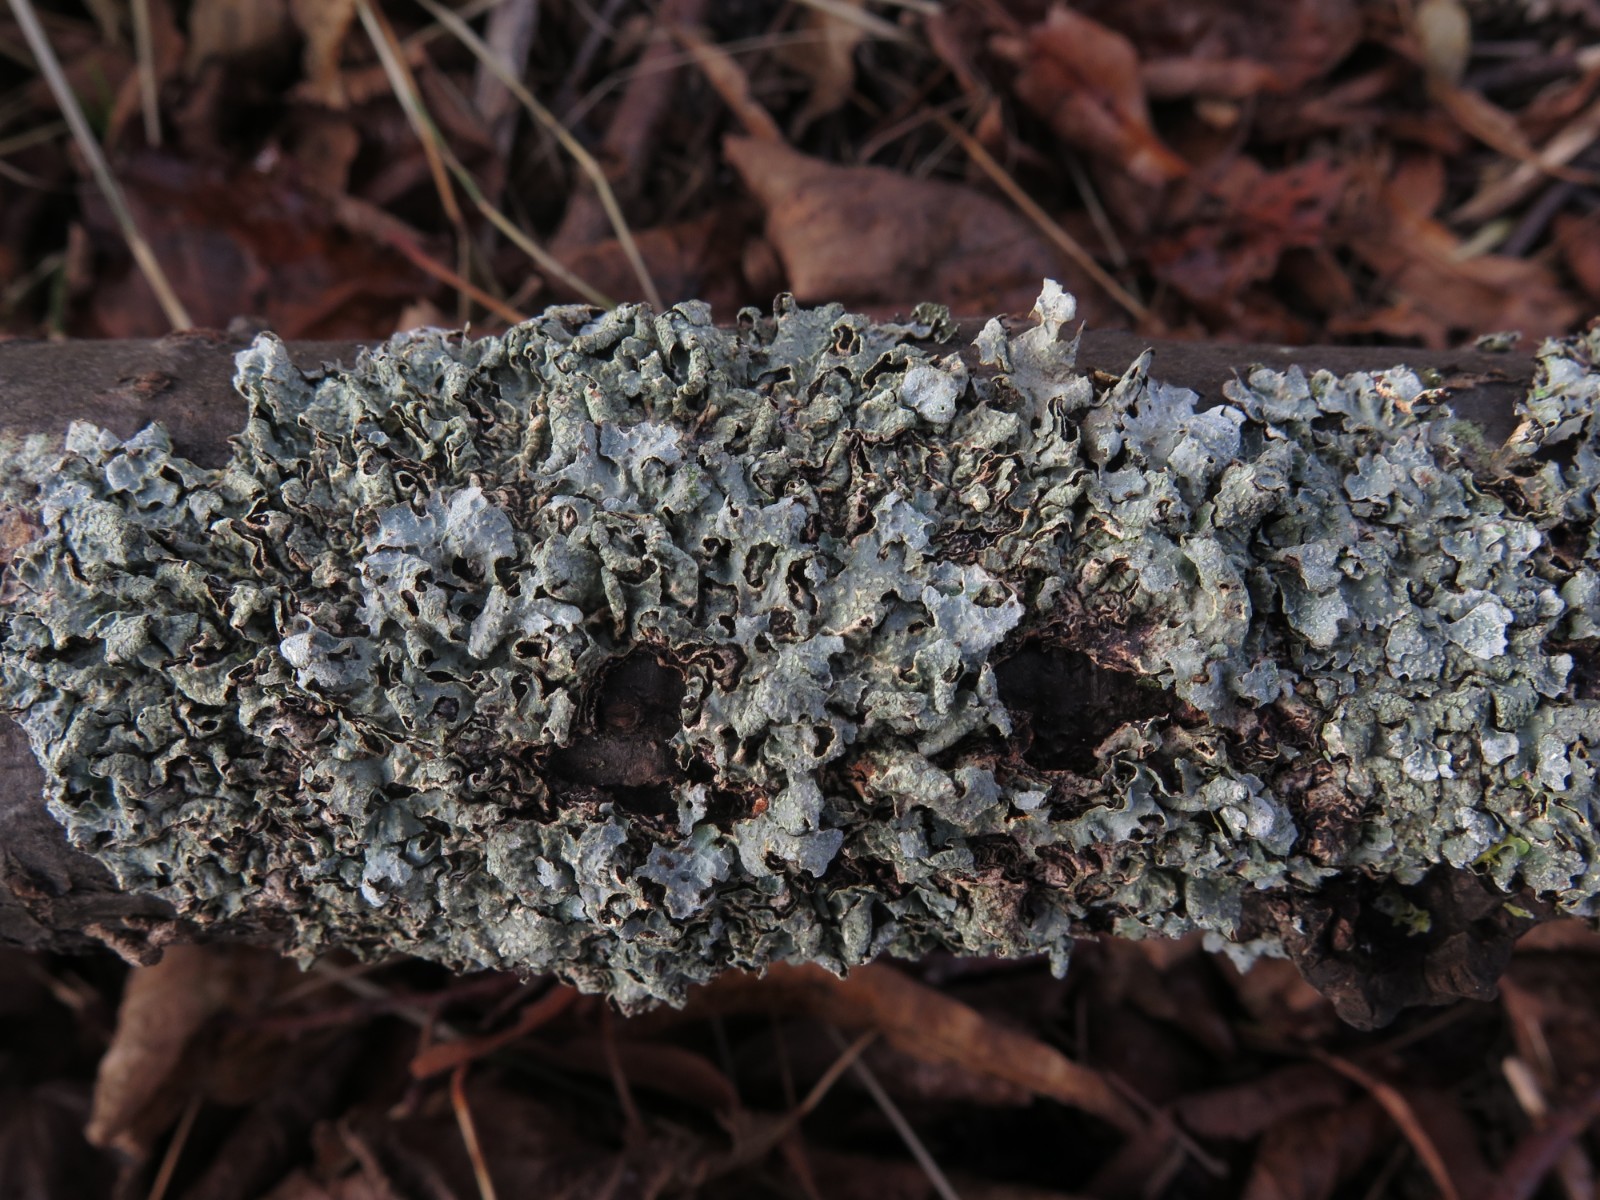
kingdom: Fungi
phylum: Ascomycota
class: Lecanoromycetes
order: Lecanorales
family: Parmeliaceae
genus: Parmelia
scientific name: Parmelia sulcata
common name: rynket skållav
